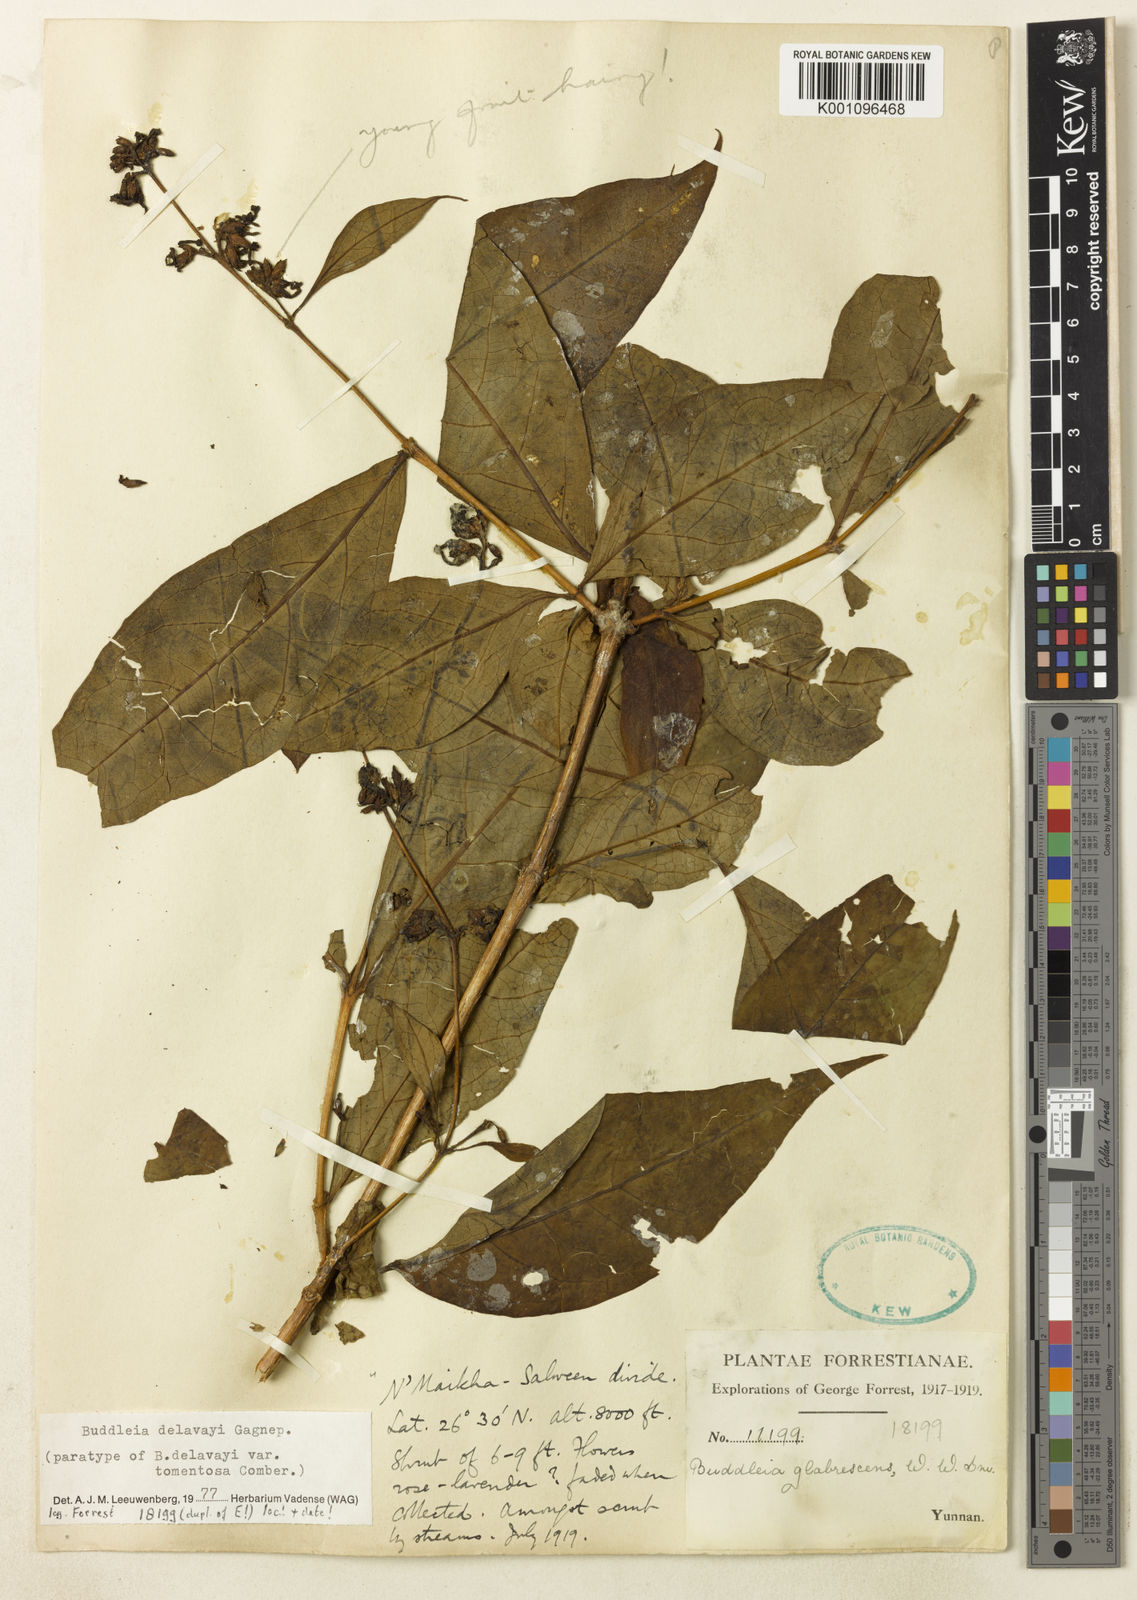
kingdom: Plantae
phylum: Tracheophyta
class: Magnoliopsida
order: Lamiales
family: Scrophulariaceae
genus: Buddleja
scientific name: Buddleja
